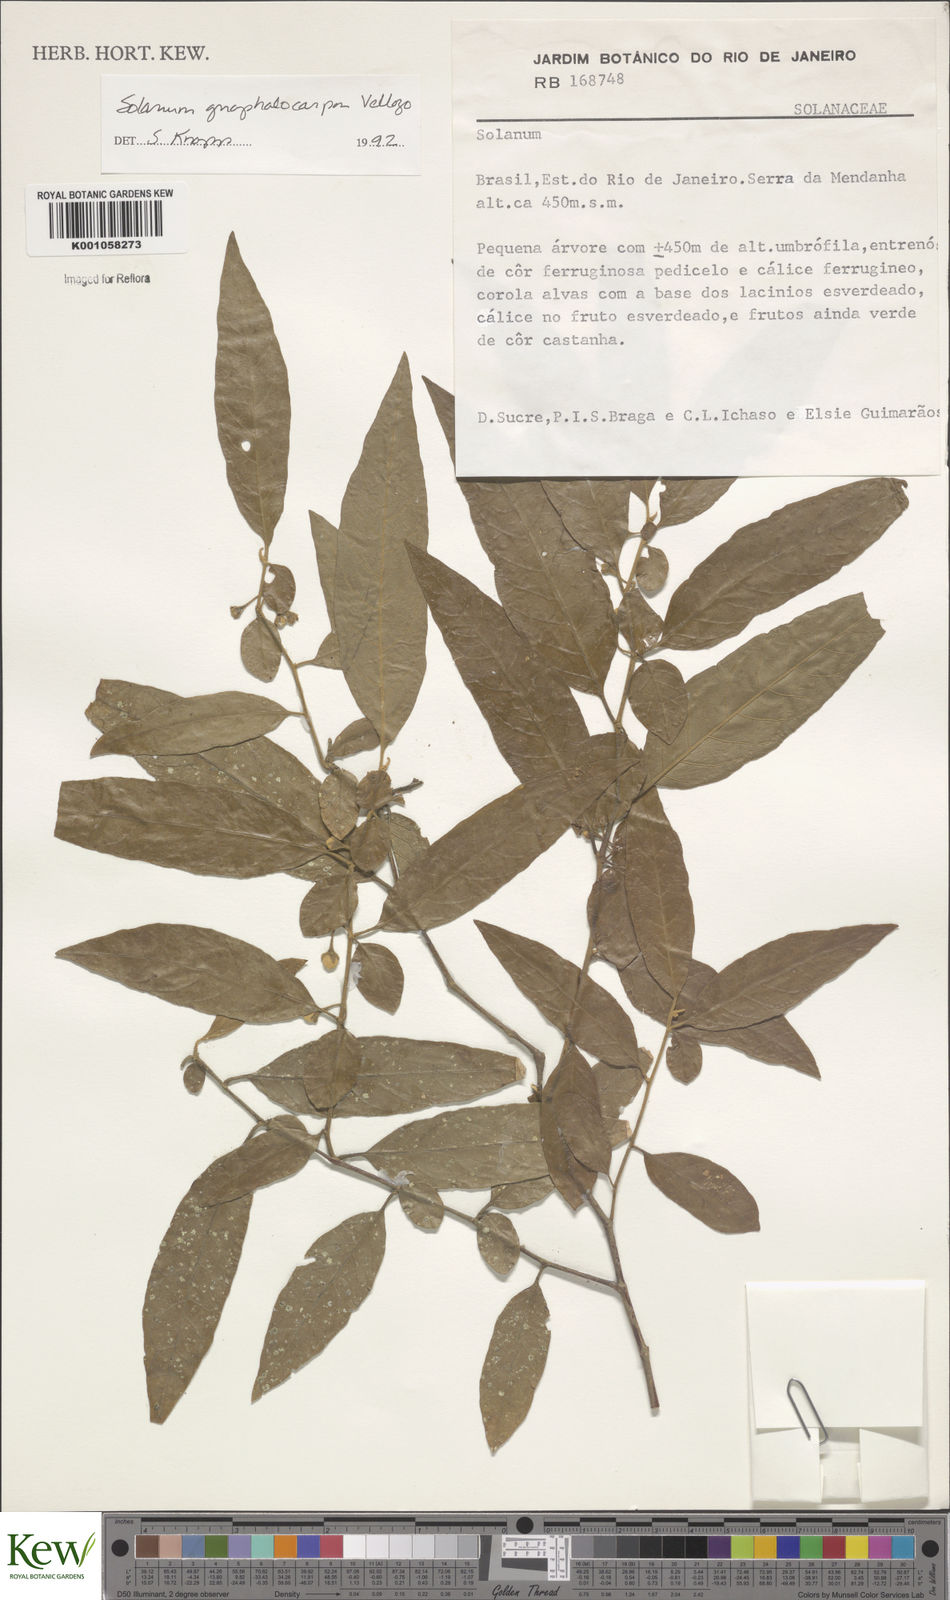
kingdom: Plantae
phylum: Tracheophyta
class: Magnoliopsida
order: Solanales
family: Solanaceae
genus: Solanum
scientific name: Solanum gnaphalocarpum
